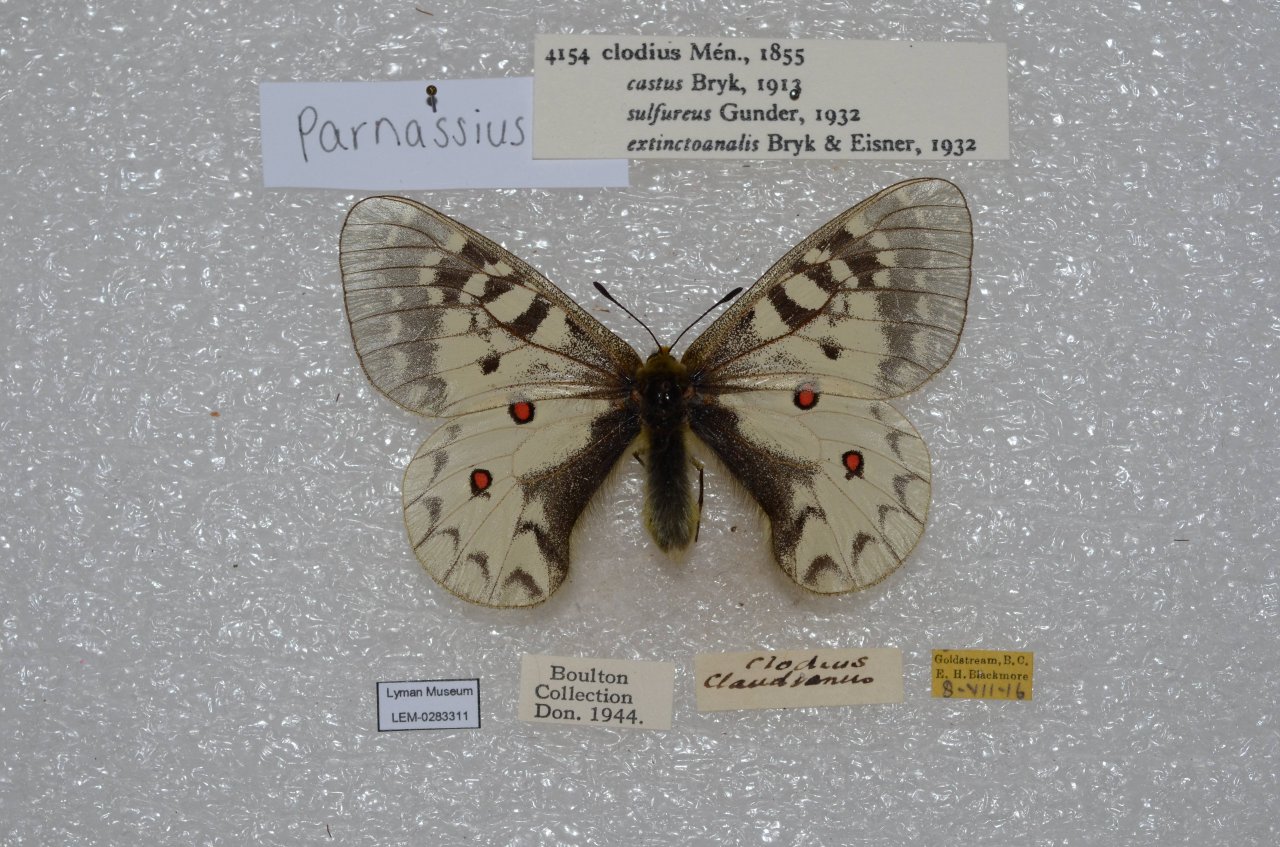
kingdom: Animalia
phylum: Arthropoda
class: Insecta
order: Lepidoptera
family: Papilionidae
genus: Parnassius
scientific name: Parnassius clodius
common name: Clodius Parnassian
